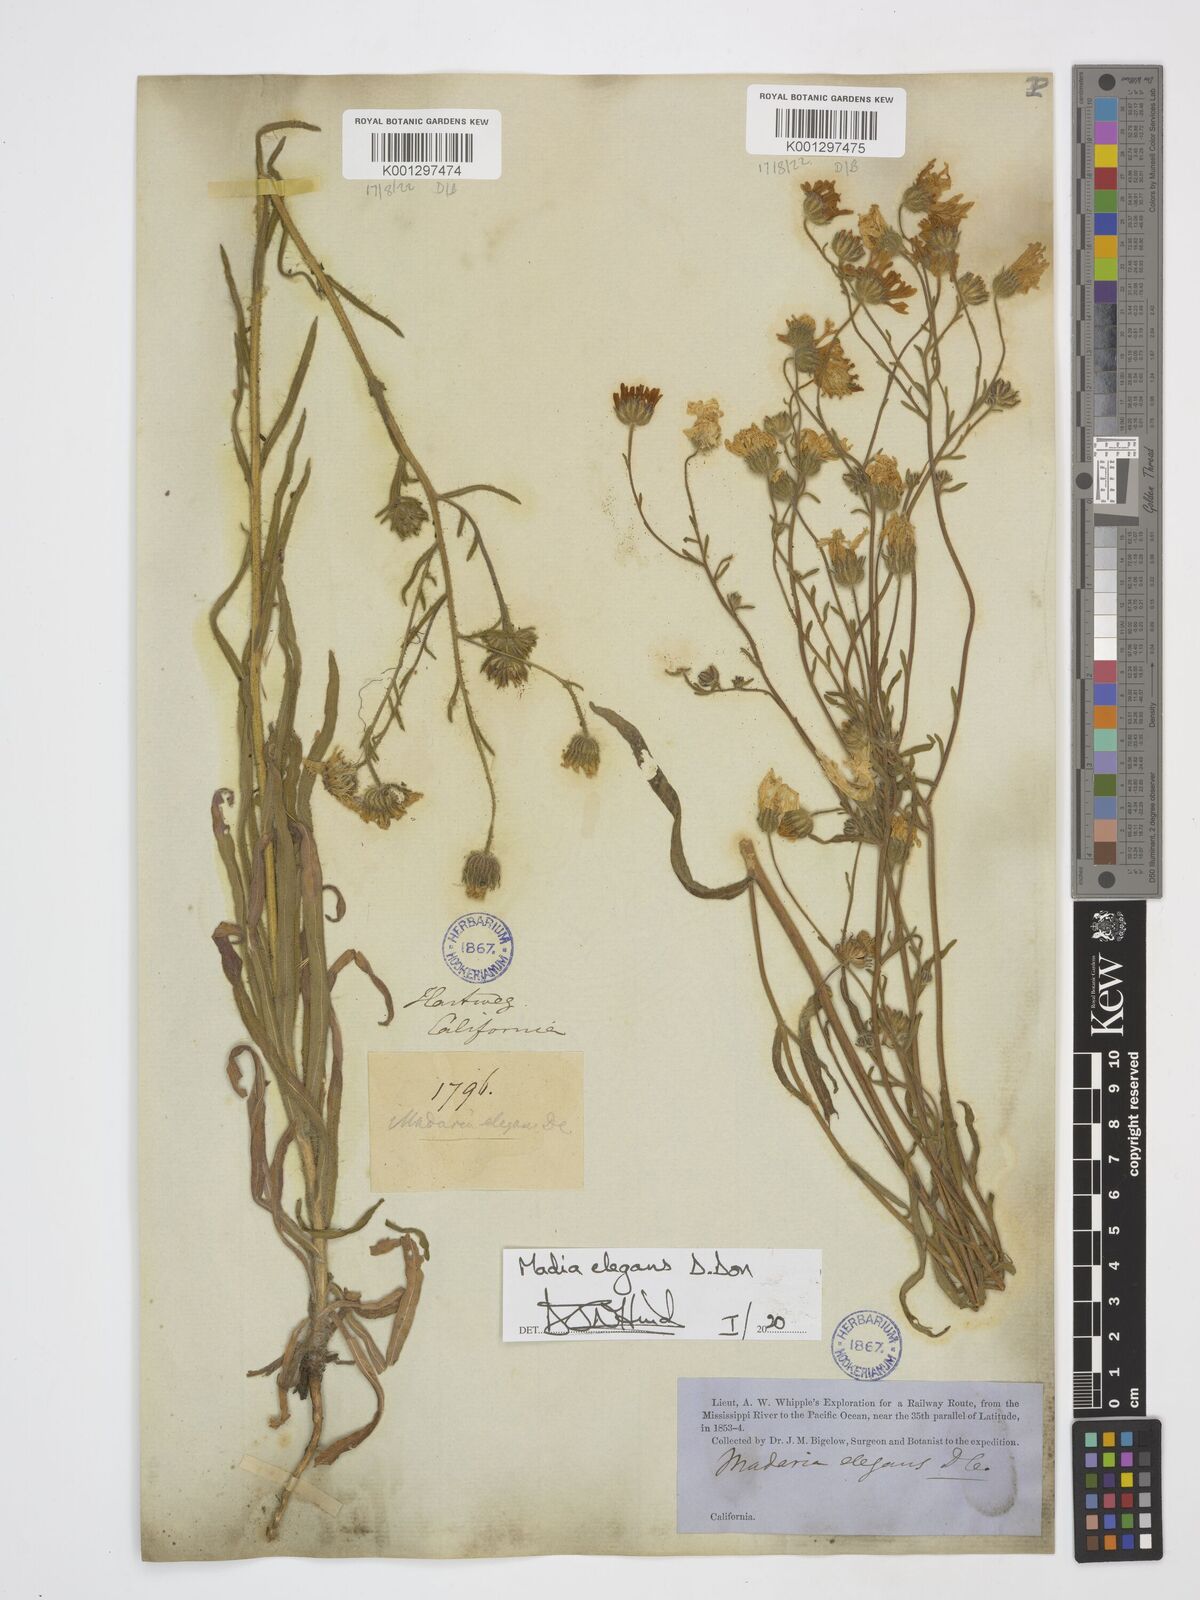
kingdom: Plantae
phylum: Tracheophyta
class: Magnoliopsida
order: Asterales
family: Asteraceae
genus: Madia
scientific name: Madia elegans
